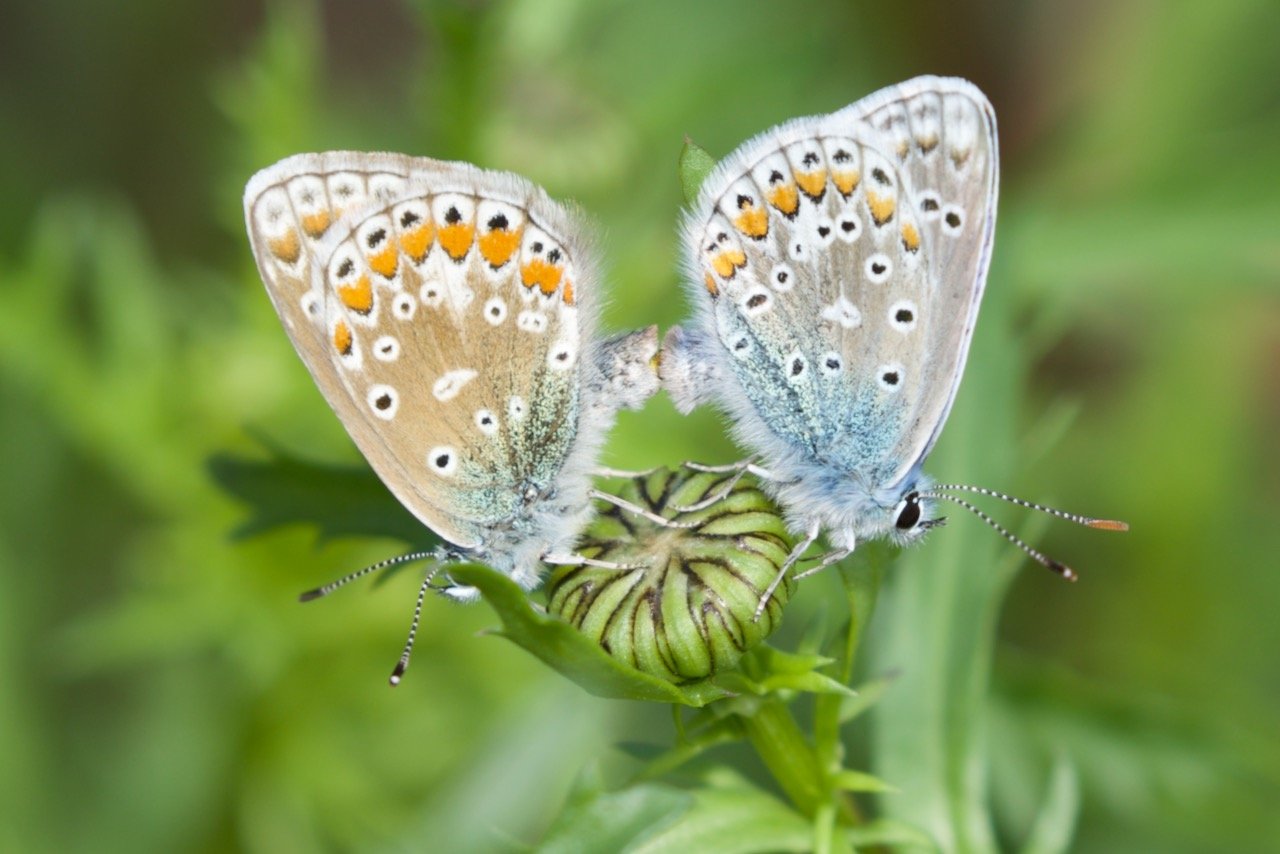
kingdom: Animalia
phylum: Arthropoda
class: Insecta
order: Lepidoptera
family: Lycaenidae
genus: Polyommatus
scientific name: Polyommatus icarus
